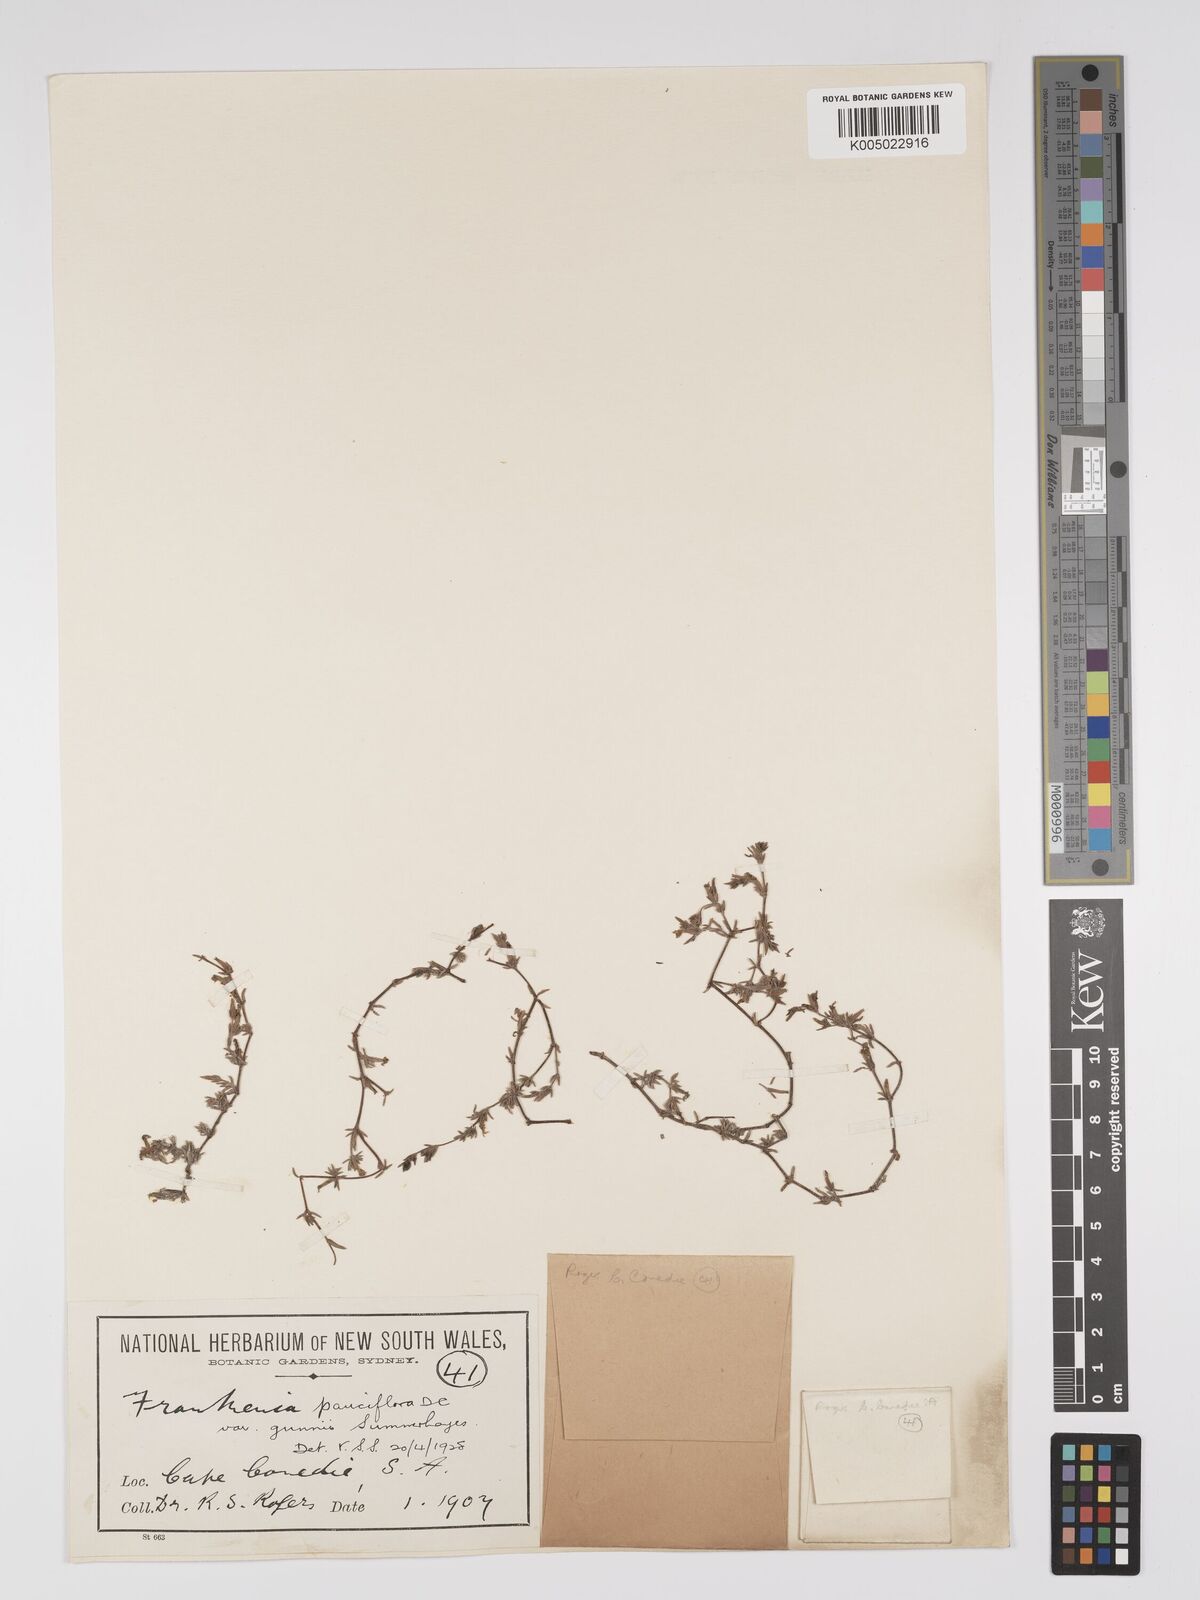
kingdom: Plantae
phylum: Tracheophyta
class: Magnoliopsida
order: Caryophyllales
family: Frankeniaceae
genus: Frankenia
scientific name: Frankenia pauciflora
